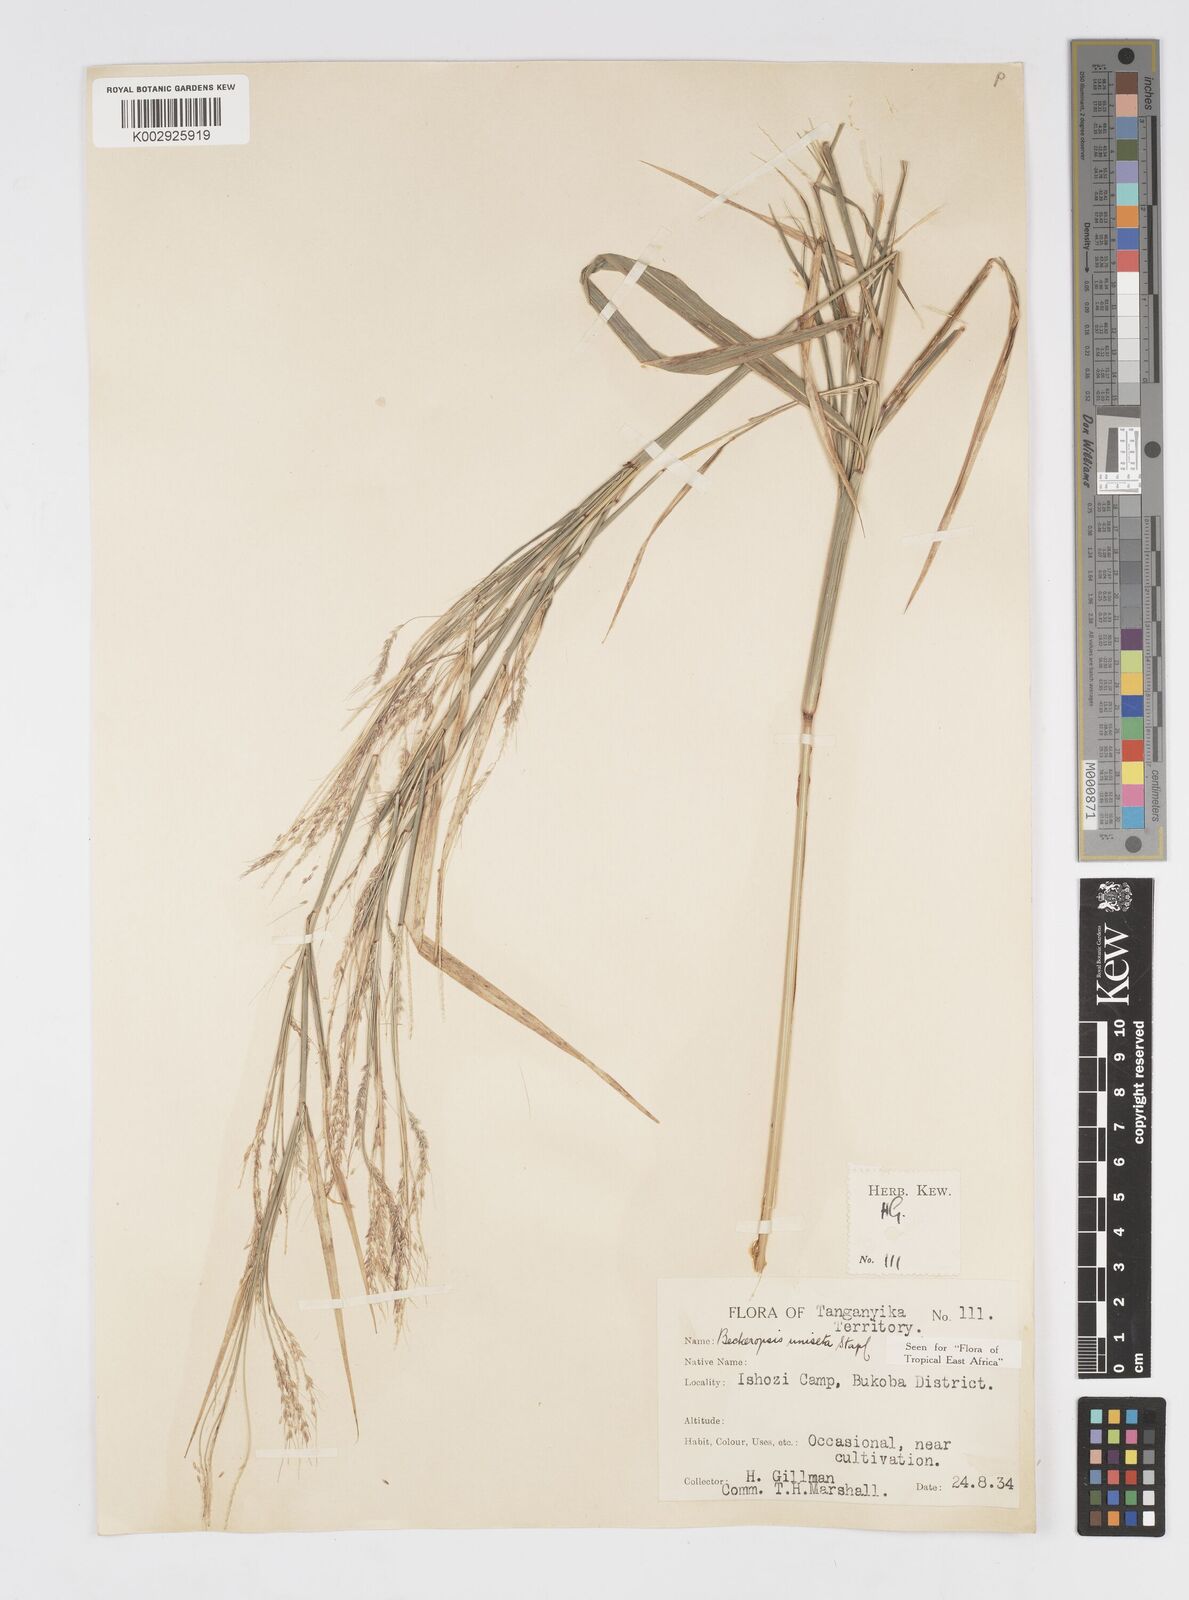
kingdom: Plantae
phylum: Tracheophyta
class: Liliopsida
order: Poales
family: Poaceae
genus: Cenchrus
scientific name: Cenchrus unisetus
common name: Natal grass
